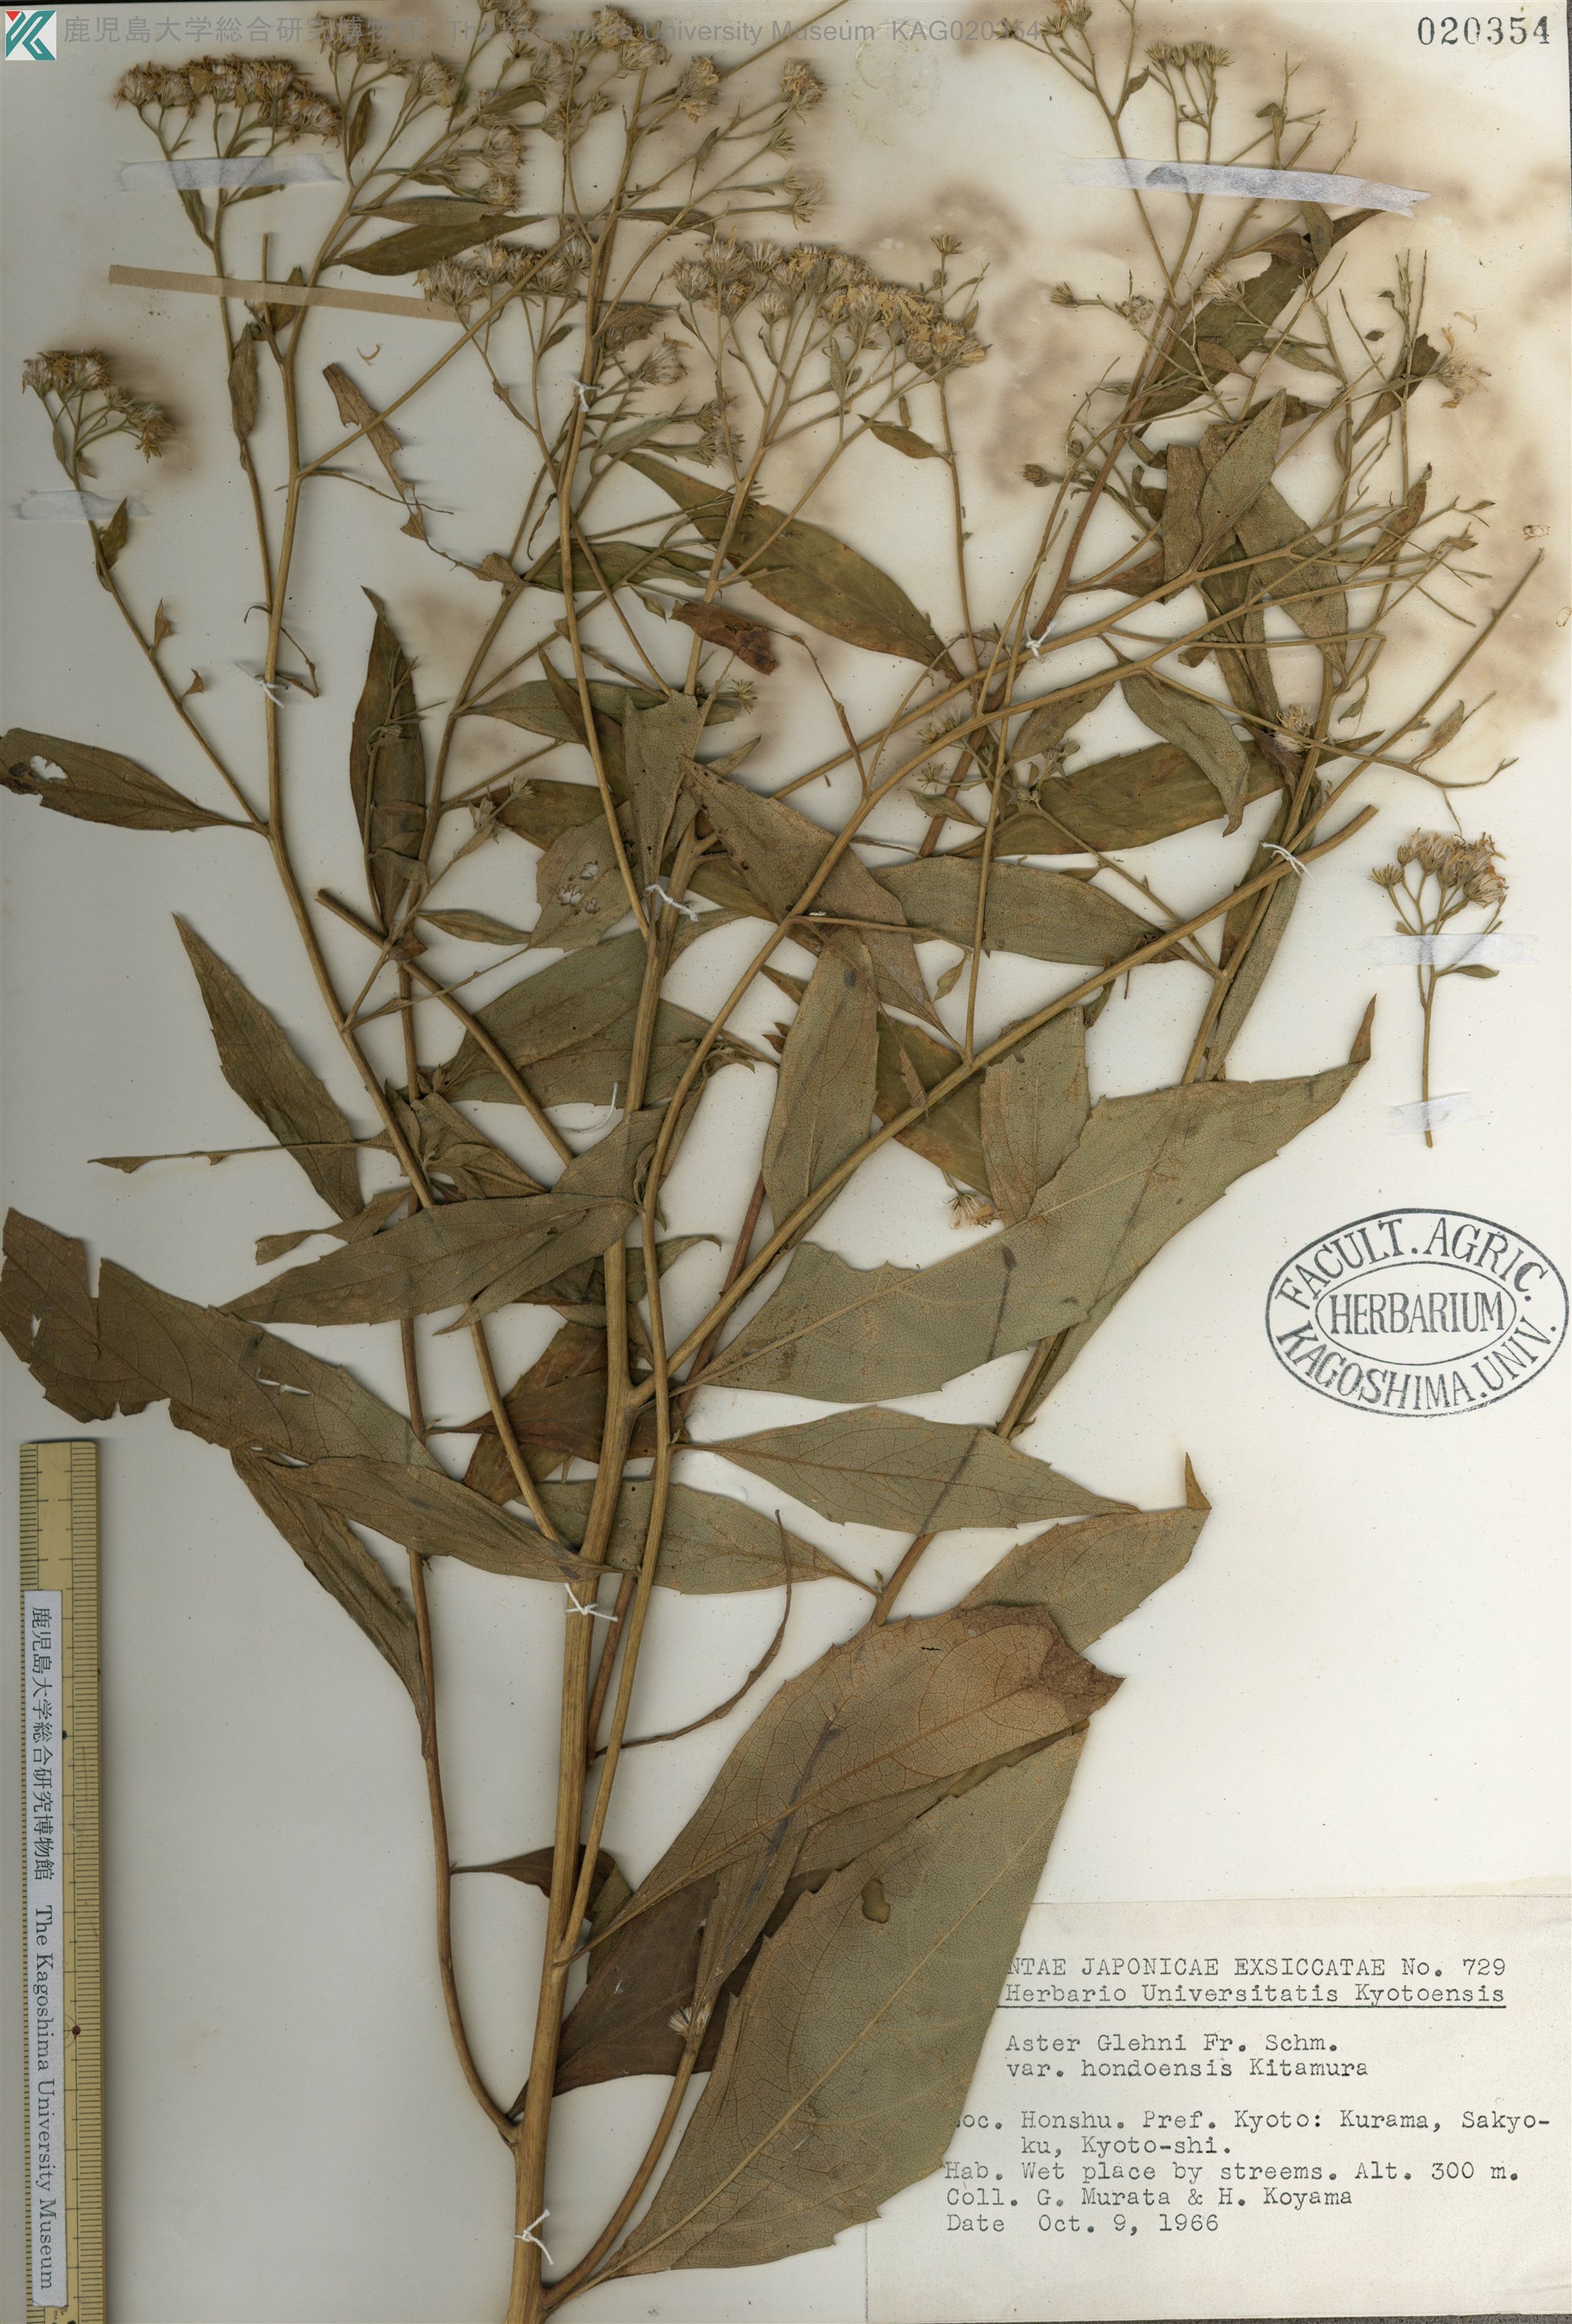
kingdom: Plantae
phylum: Tracheophyta
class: Magnoliopsida
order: Asterales
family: Asteraceae
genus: Kitamuria
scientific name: Kitamuria glehnii
